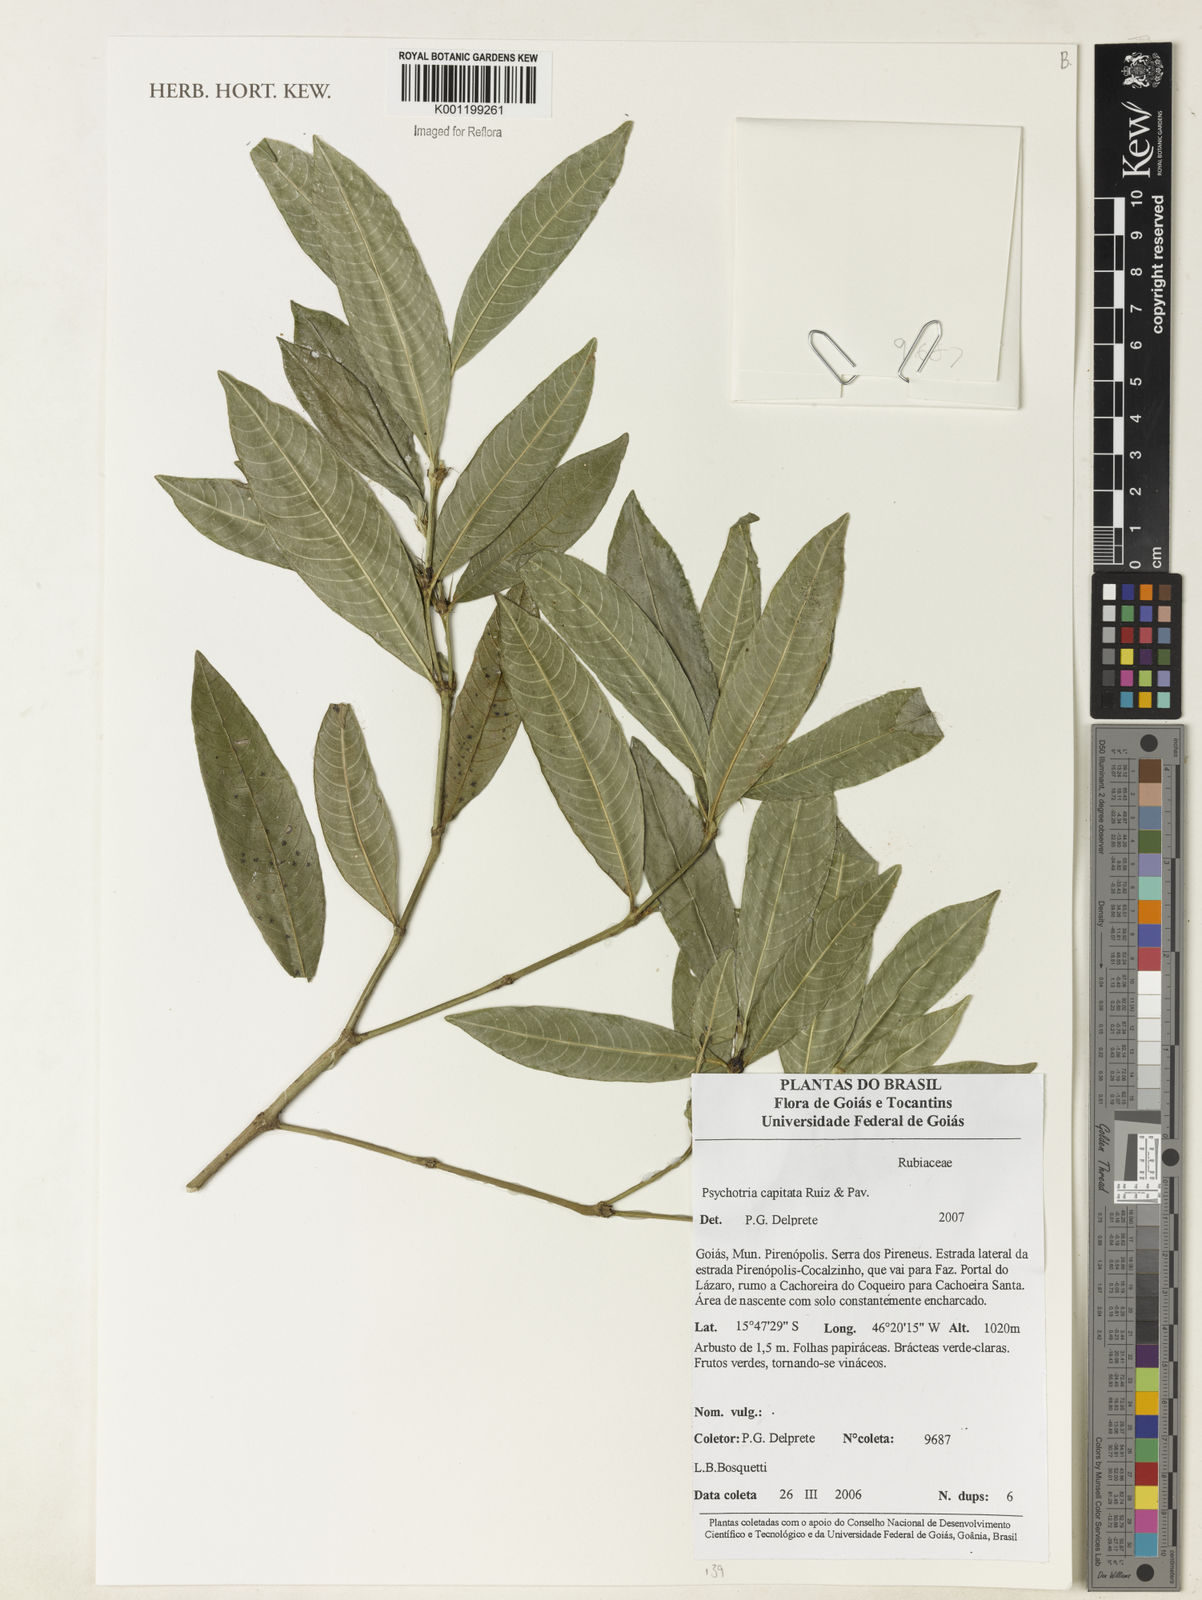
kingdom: Plantae
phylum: Tracheophyta
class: Magnoliopsida
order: Gentianales
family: Rubiaceae
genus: Palicourea
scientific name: Palicourea violacea
